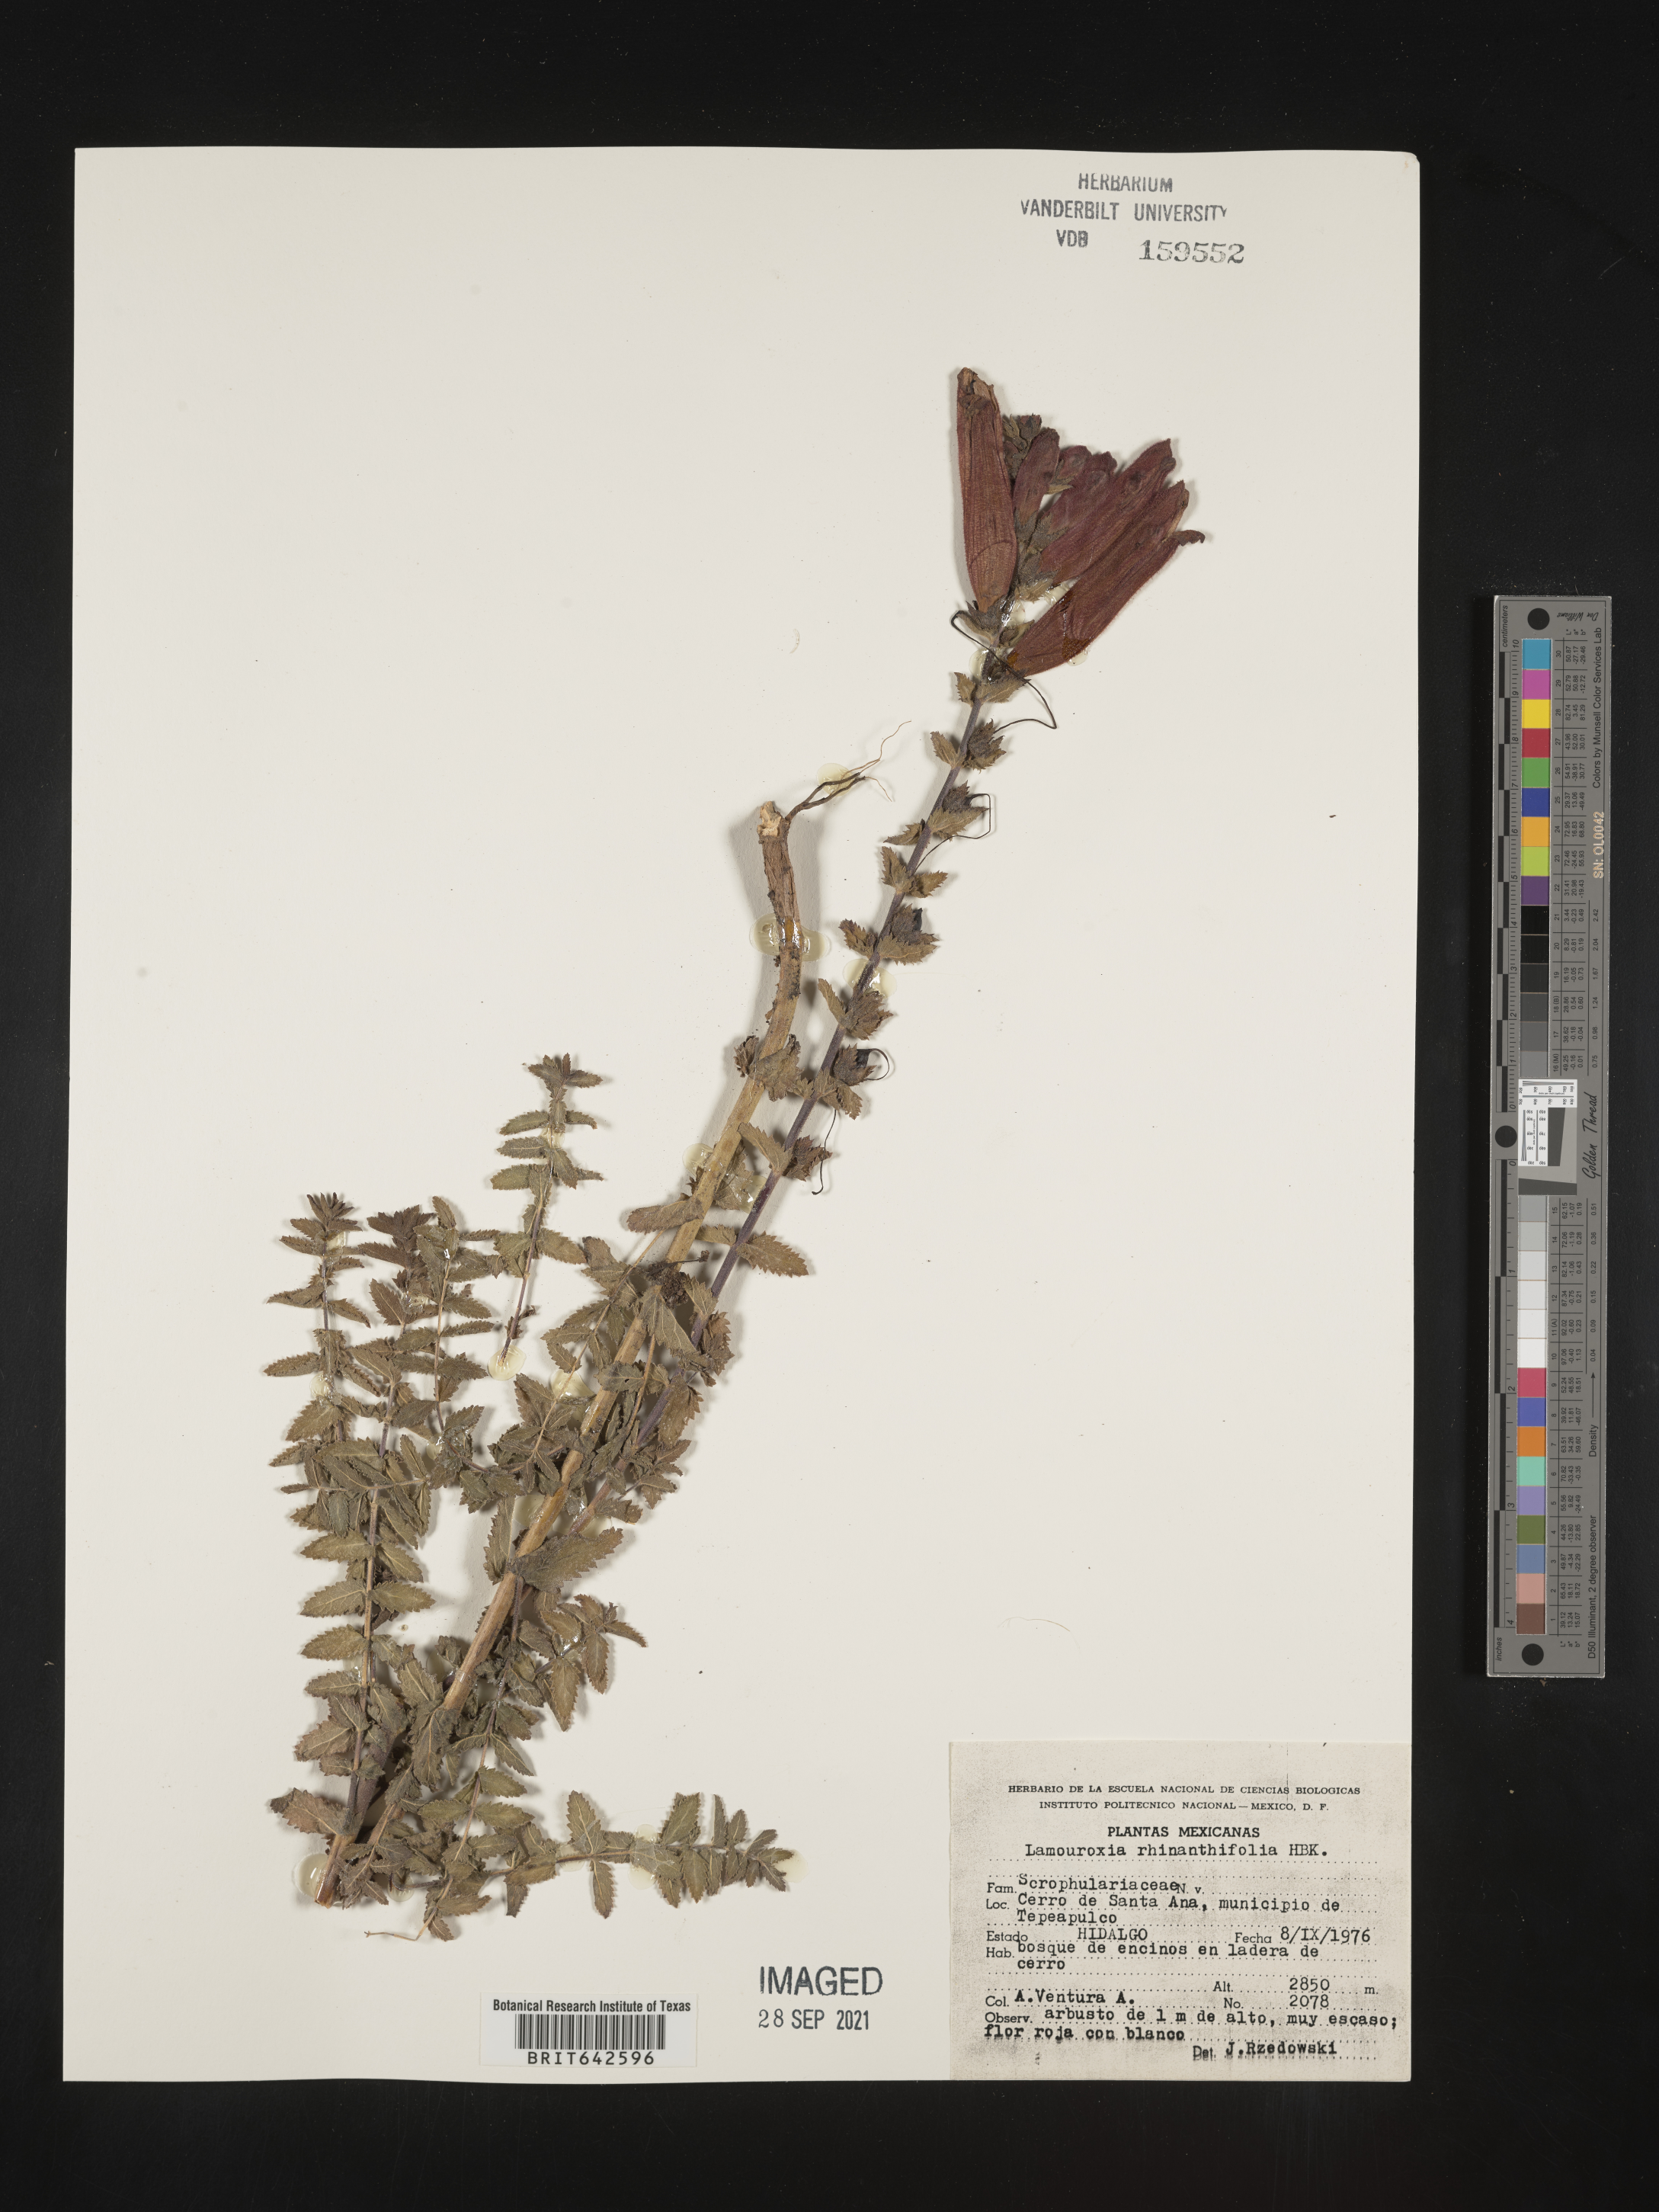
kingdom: Plantae
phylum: Tracheophyta
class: Magnoliopsida
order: Lamiales
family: Orobanchaceae
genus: Lamourouxia
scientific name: Lamourouxia
